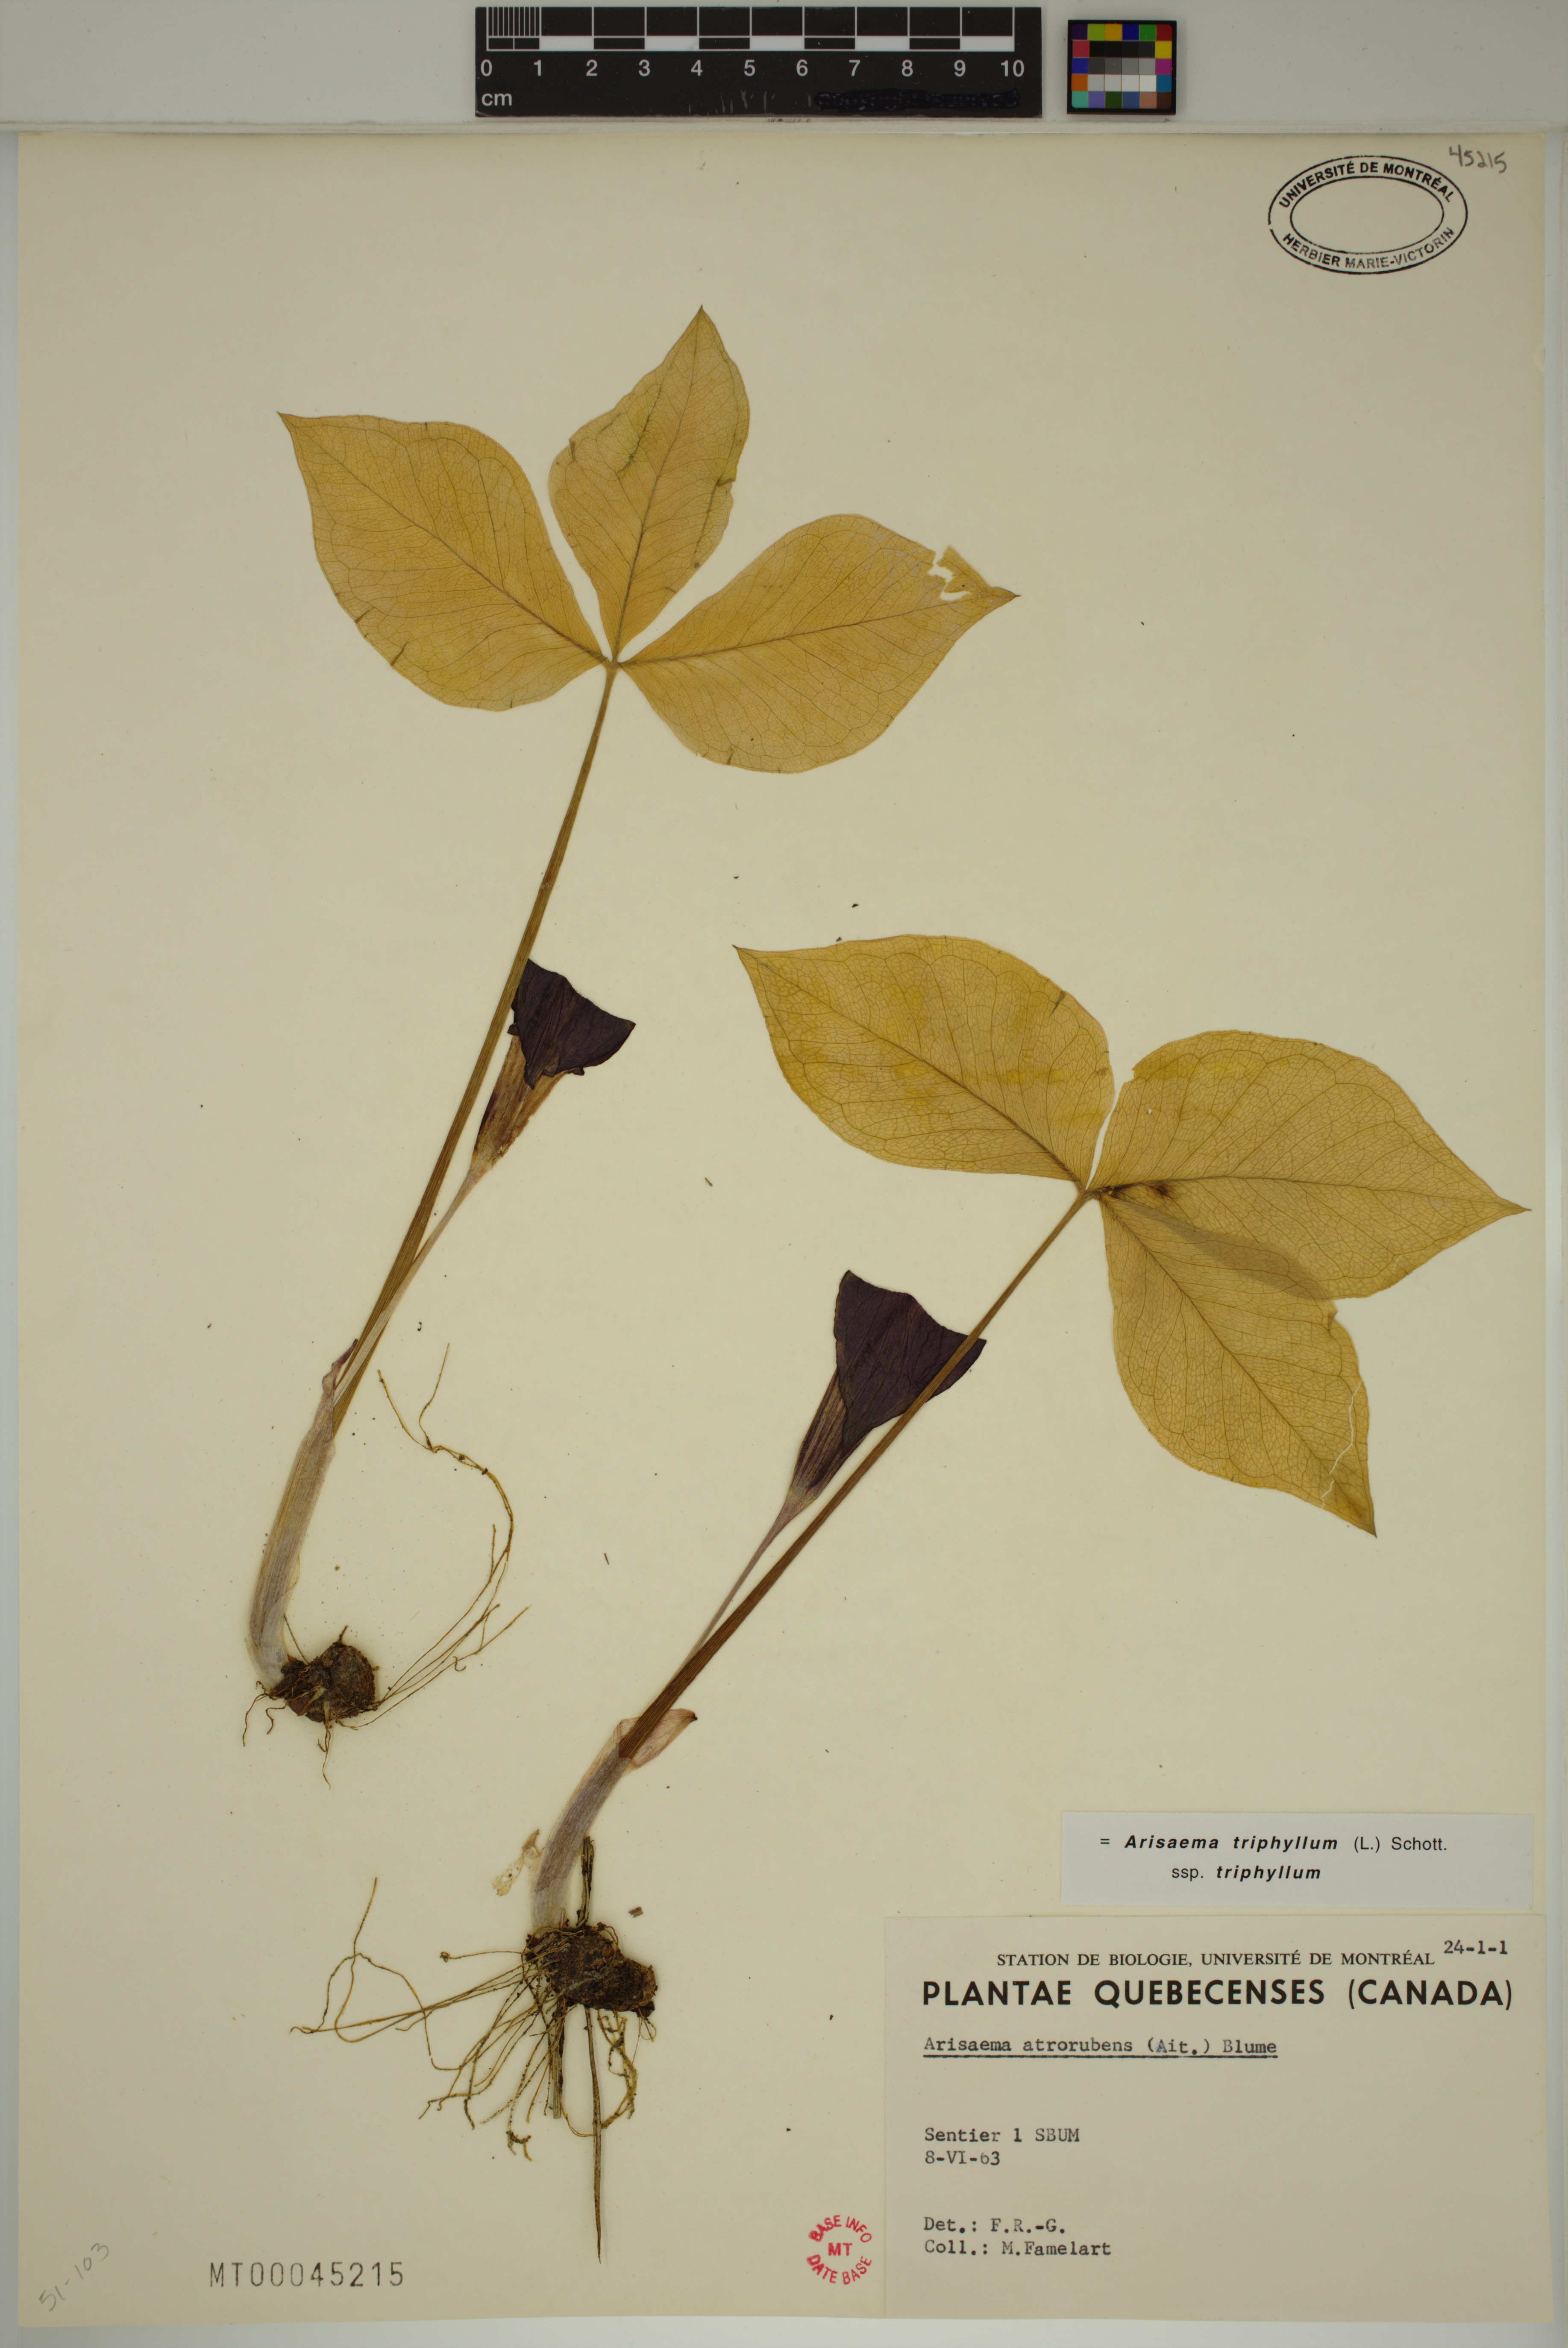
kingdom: Plantae
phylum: Tracheophyta
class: Liliopsida
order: Alismatales
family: Araceae
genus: Arisaema
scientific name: Arisaema triphyllum
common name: Jack-in-the-pulpit
